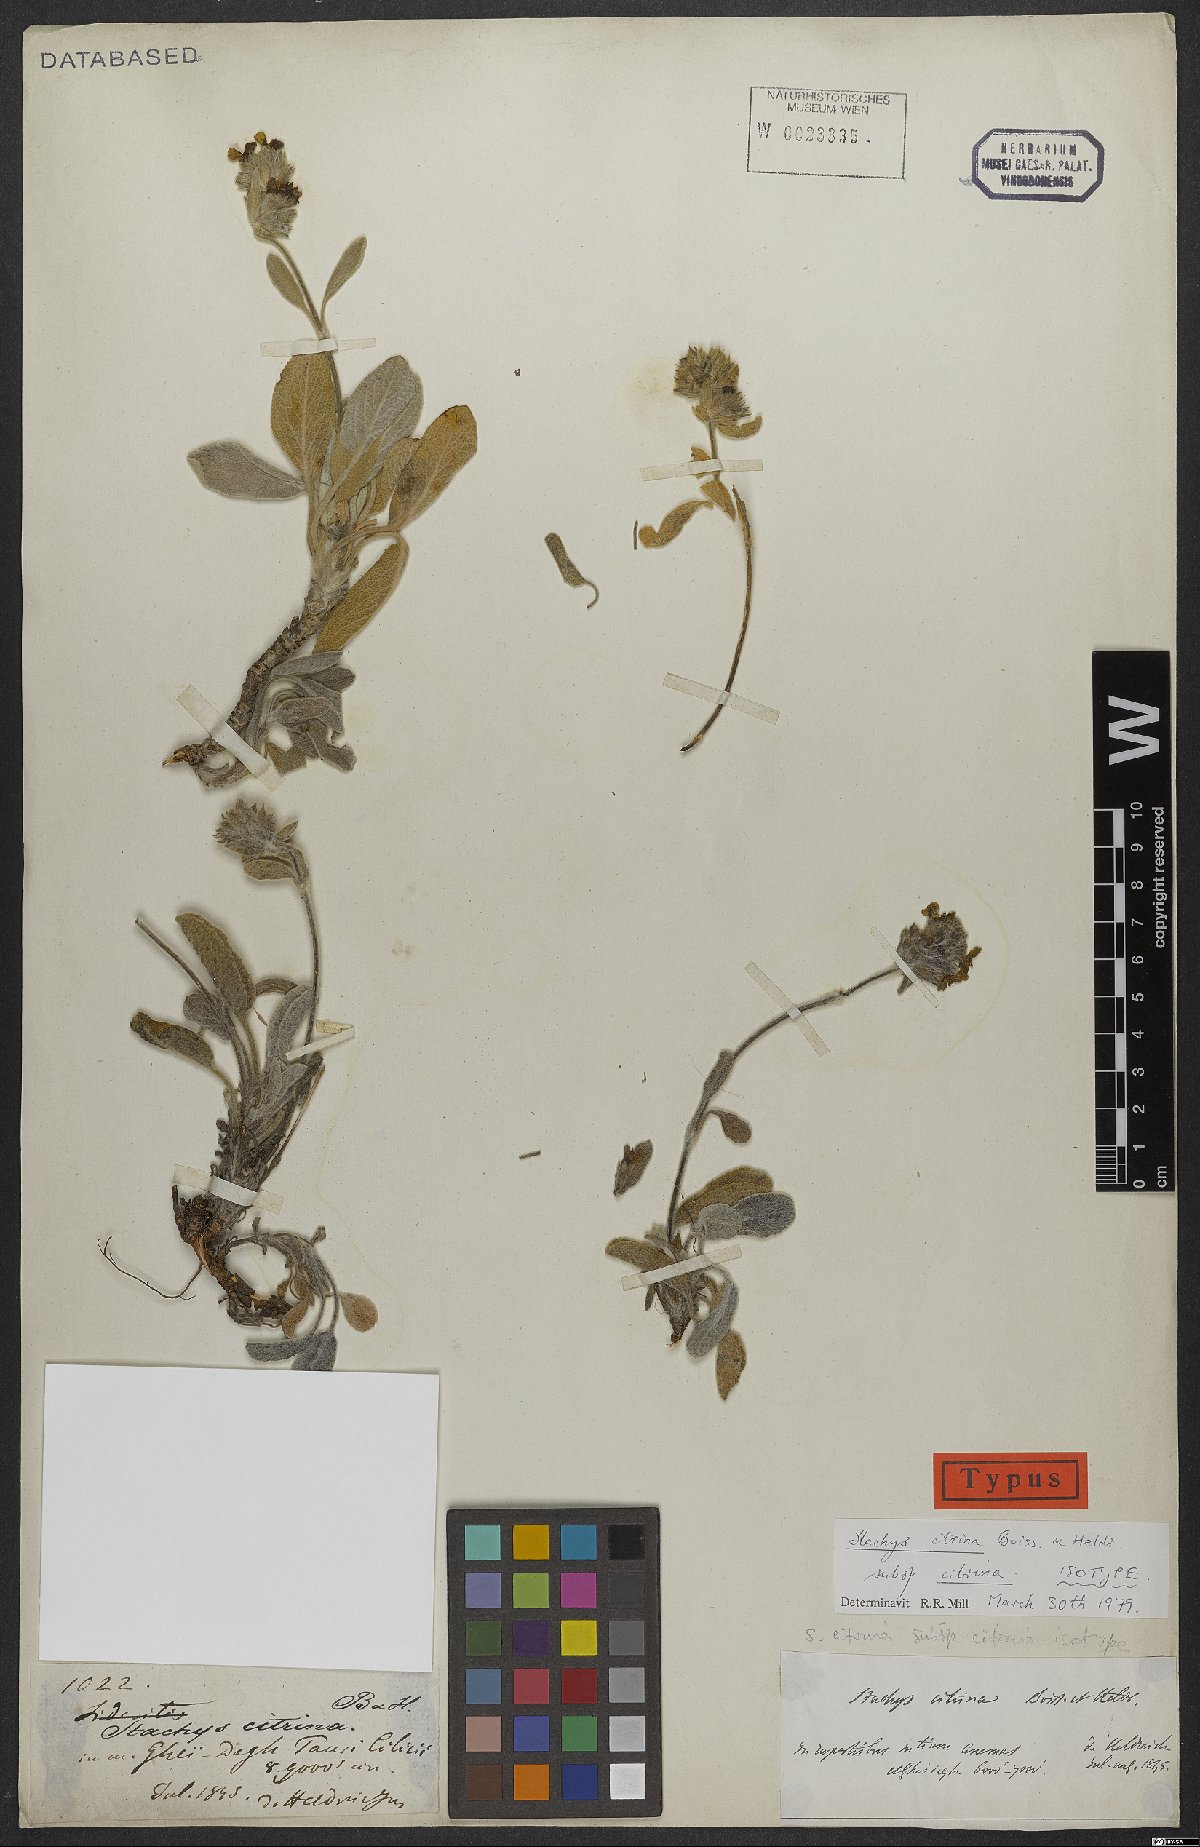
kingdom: Plantae
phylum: Tracheophyta
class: Magnoliopsida
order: Lamiales
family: Lamiaceae
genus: Stachys
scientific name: Stachys citrina
